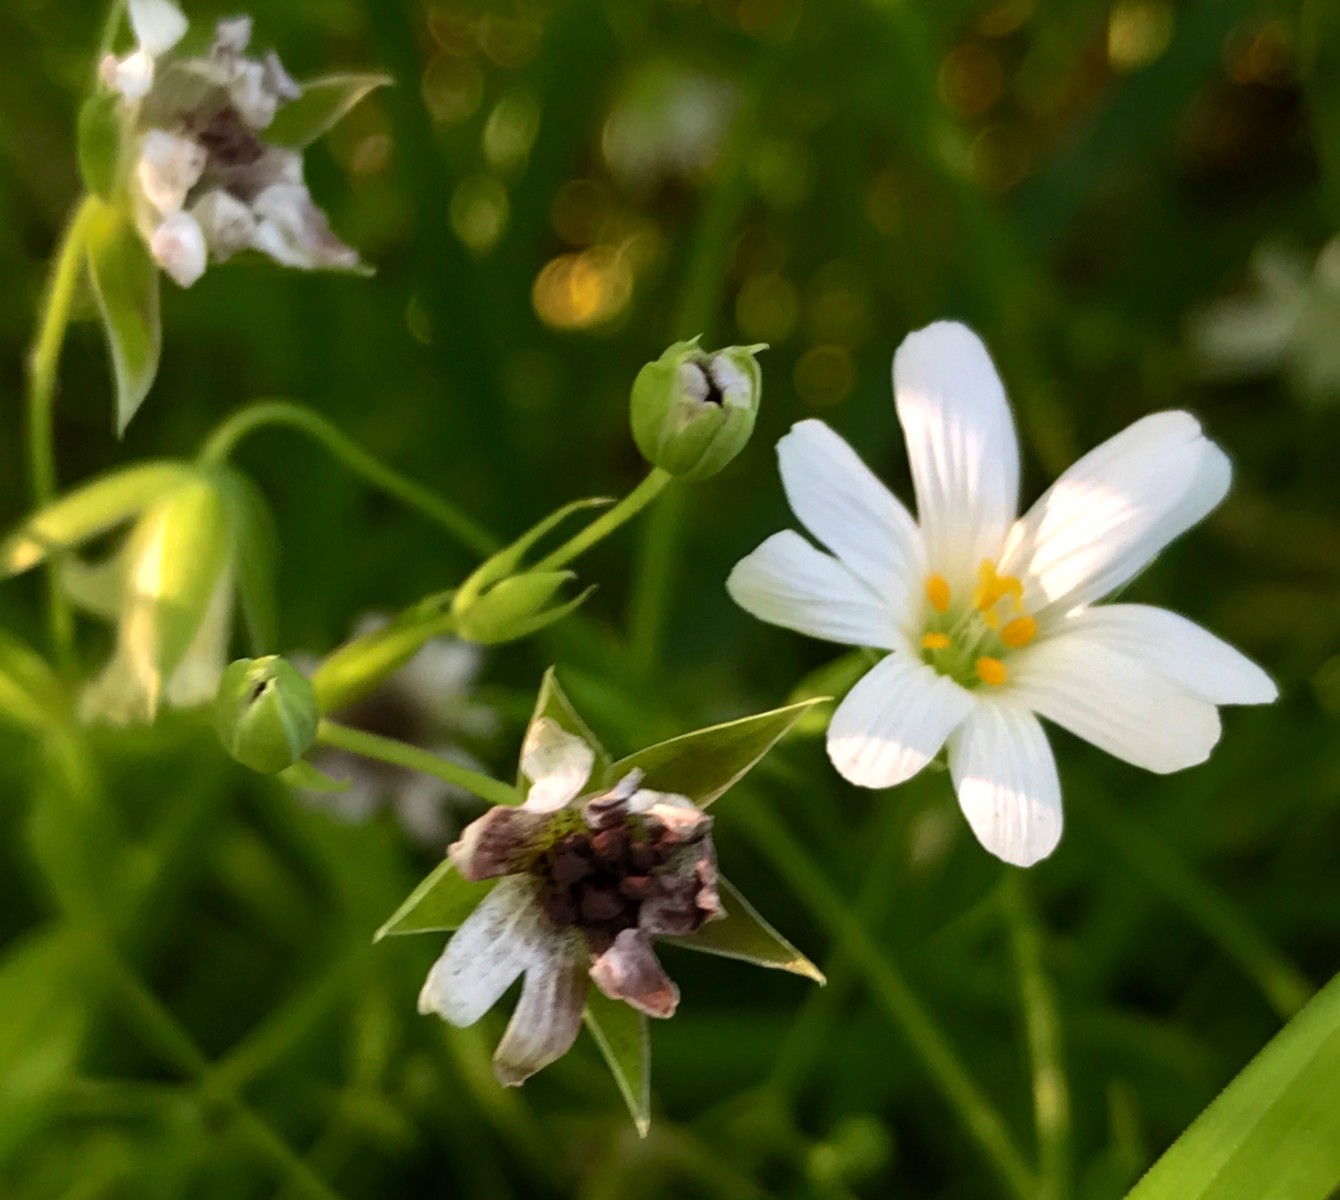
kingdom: Fungi
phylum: Basidiomycota
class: Microbotryomycetes
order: Microbotryales
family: Microbotryaceae
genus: Microbotryum
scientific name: Microbotryum stellariae
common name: fladstjerne-støvbladrust
